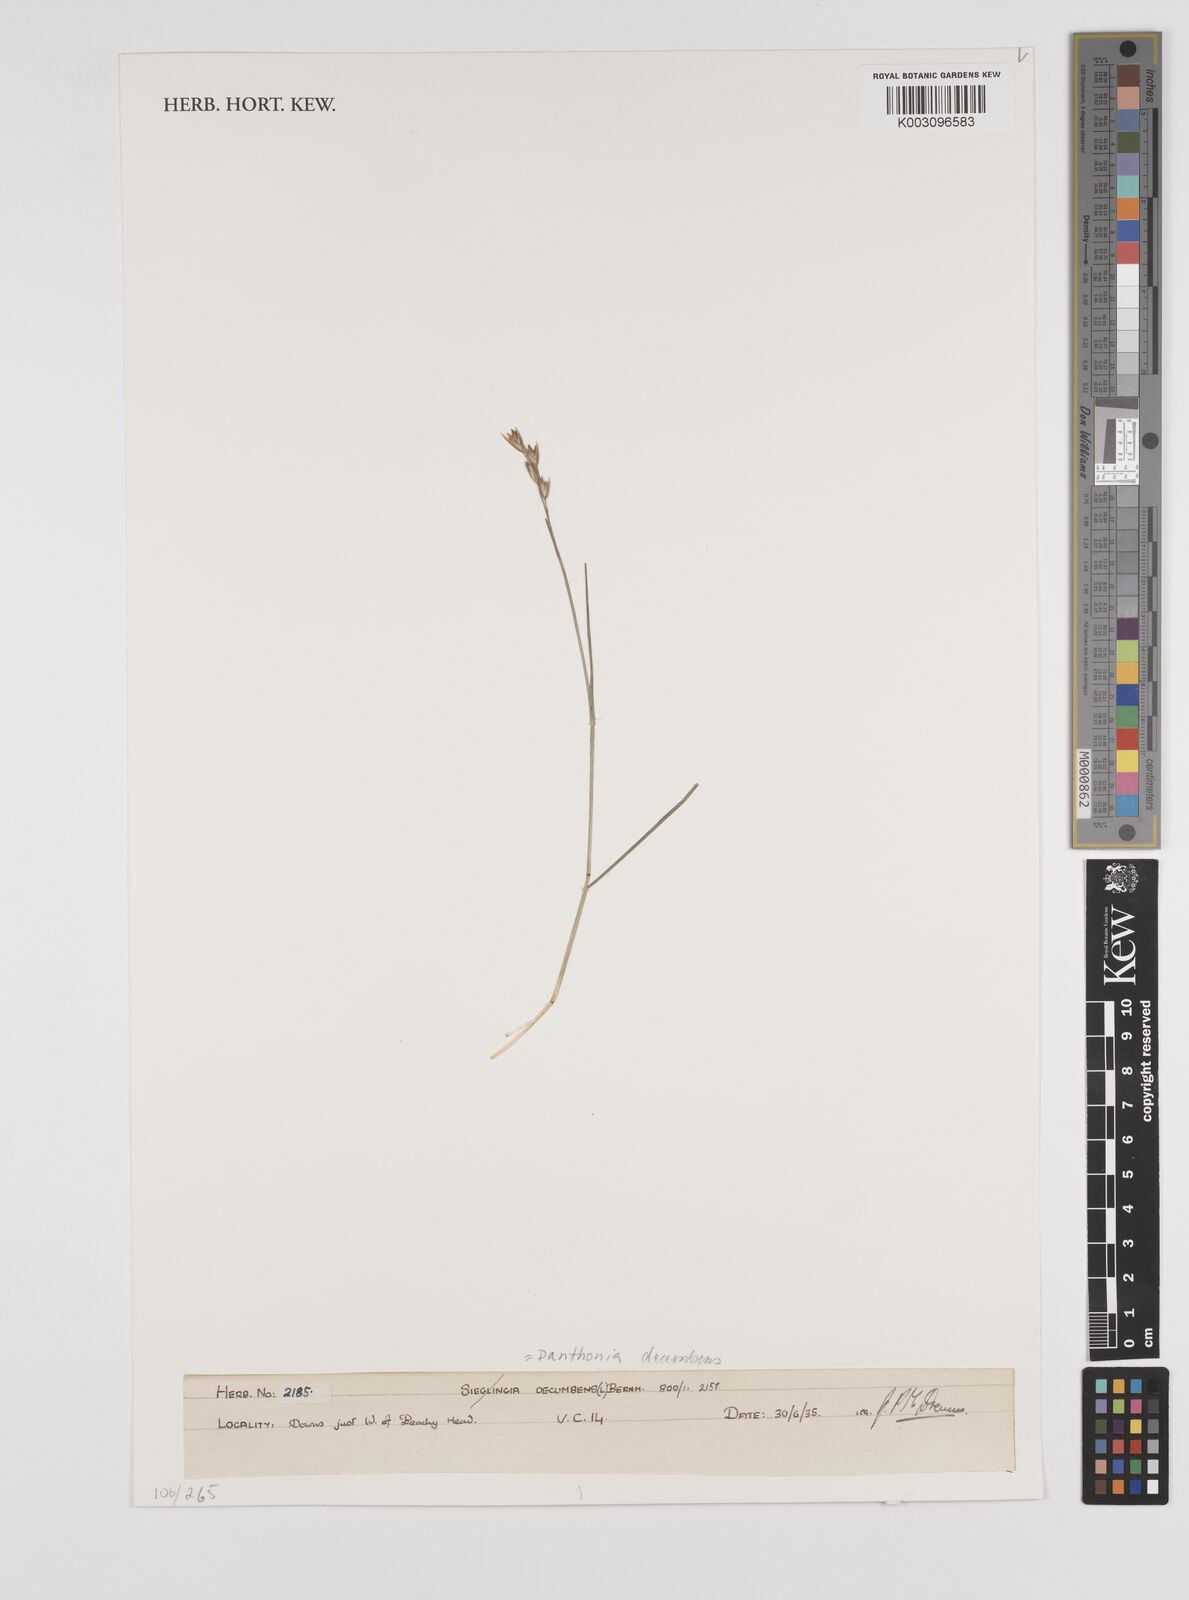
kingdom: Plantae
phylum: Tracheophyta
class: Liliopsida
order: Poales
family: Poaceae
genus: Danthonia
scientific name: Danthonia decumbens
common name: Common heathgrass
